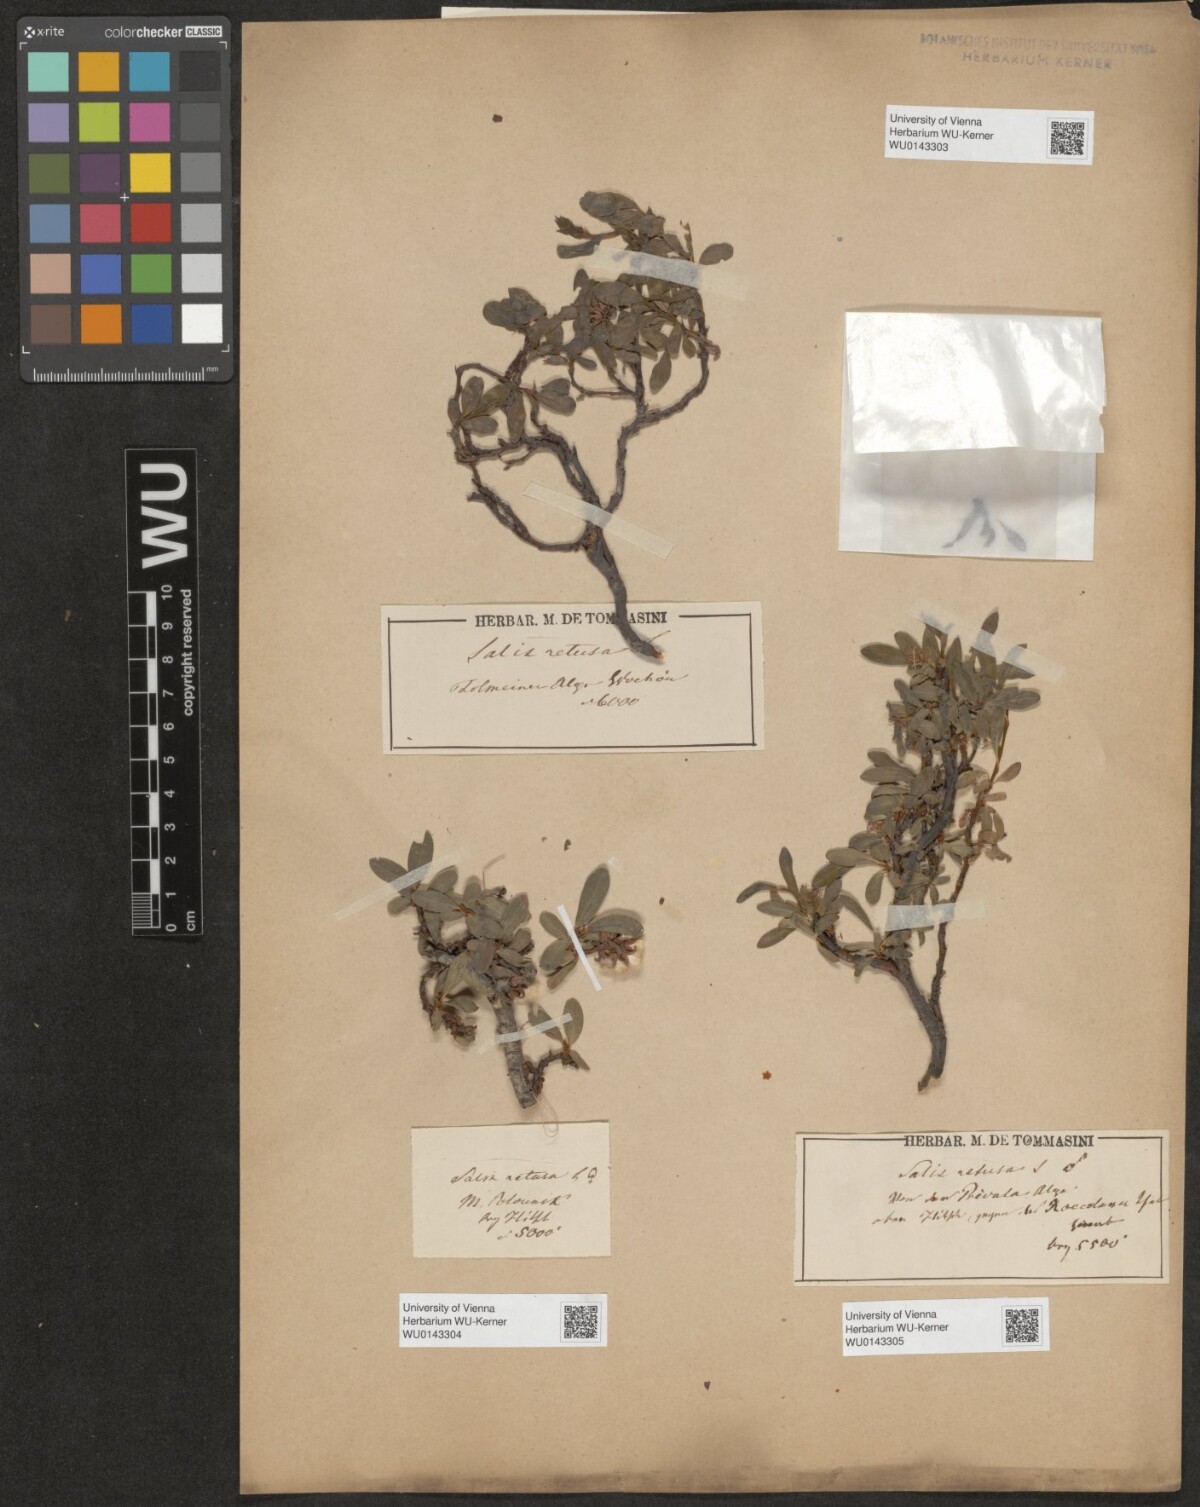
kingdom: Plantae
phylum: Tracheophyta
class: Magnoliopsida
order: Malpighiales
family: Salicaceae
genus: Salix
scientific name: Salix retusa
